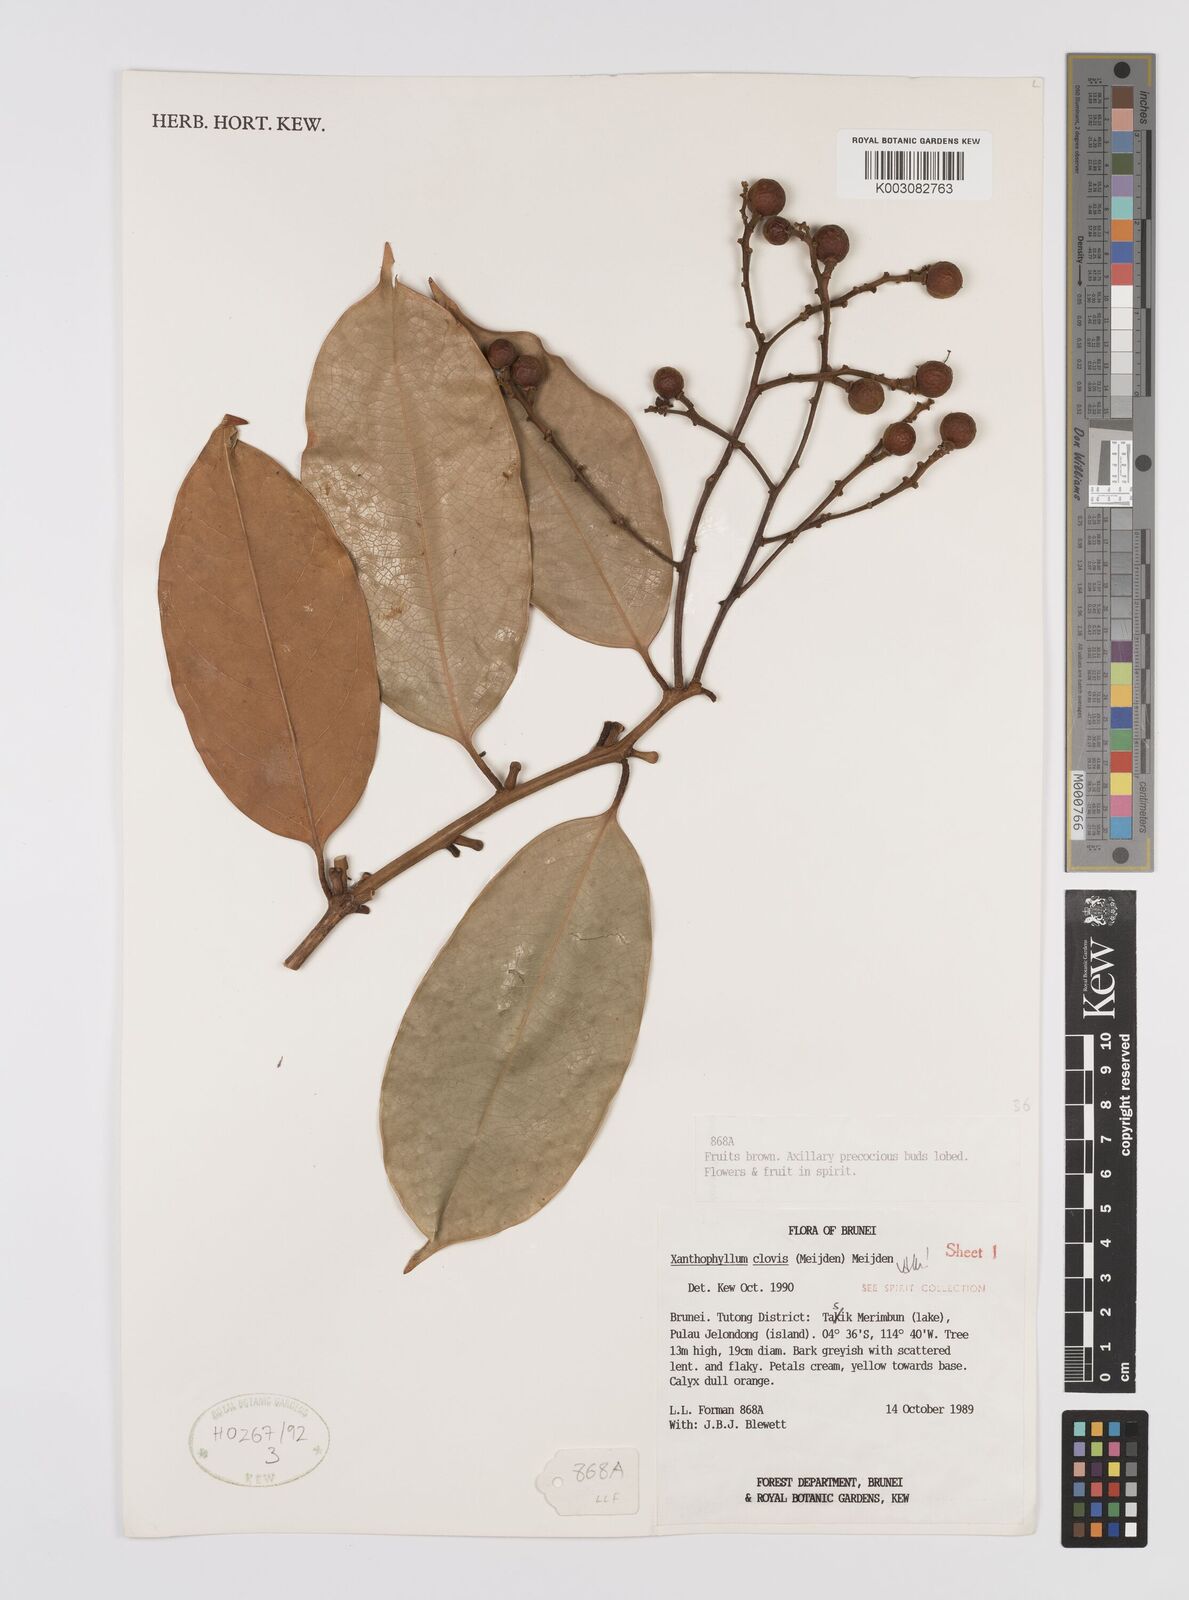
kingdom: Plantae
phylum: Tracheophyta
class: Magnoliopsida
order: Fabales
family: Polygalaceae
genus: Xanthophyllum
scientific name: Xanthophyllum clovis
